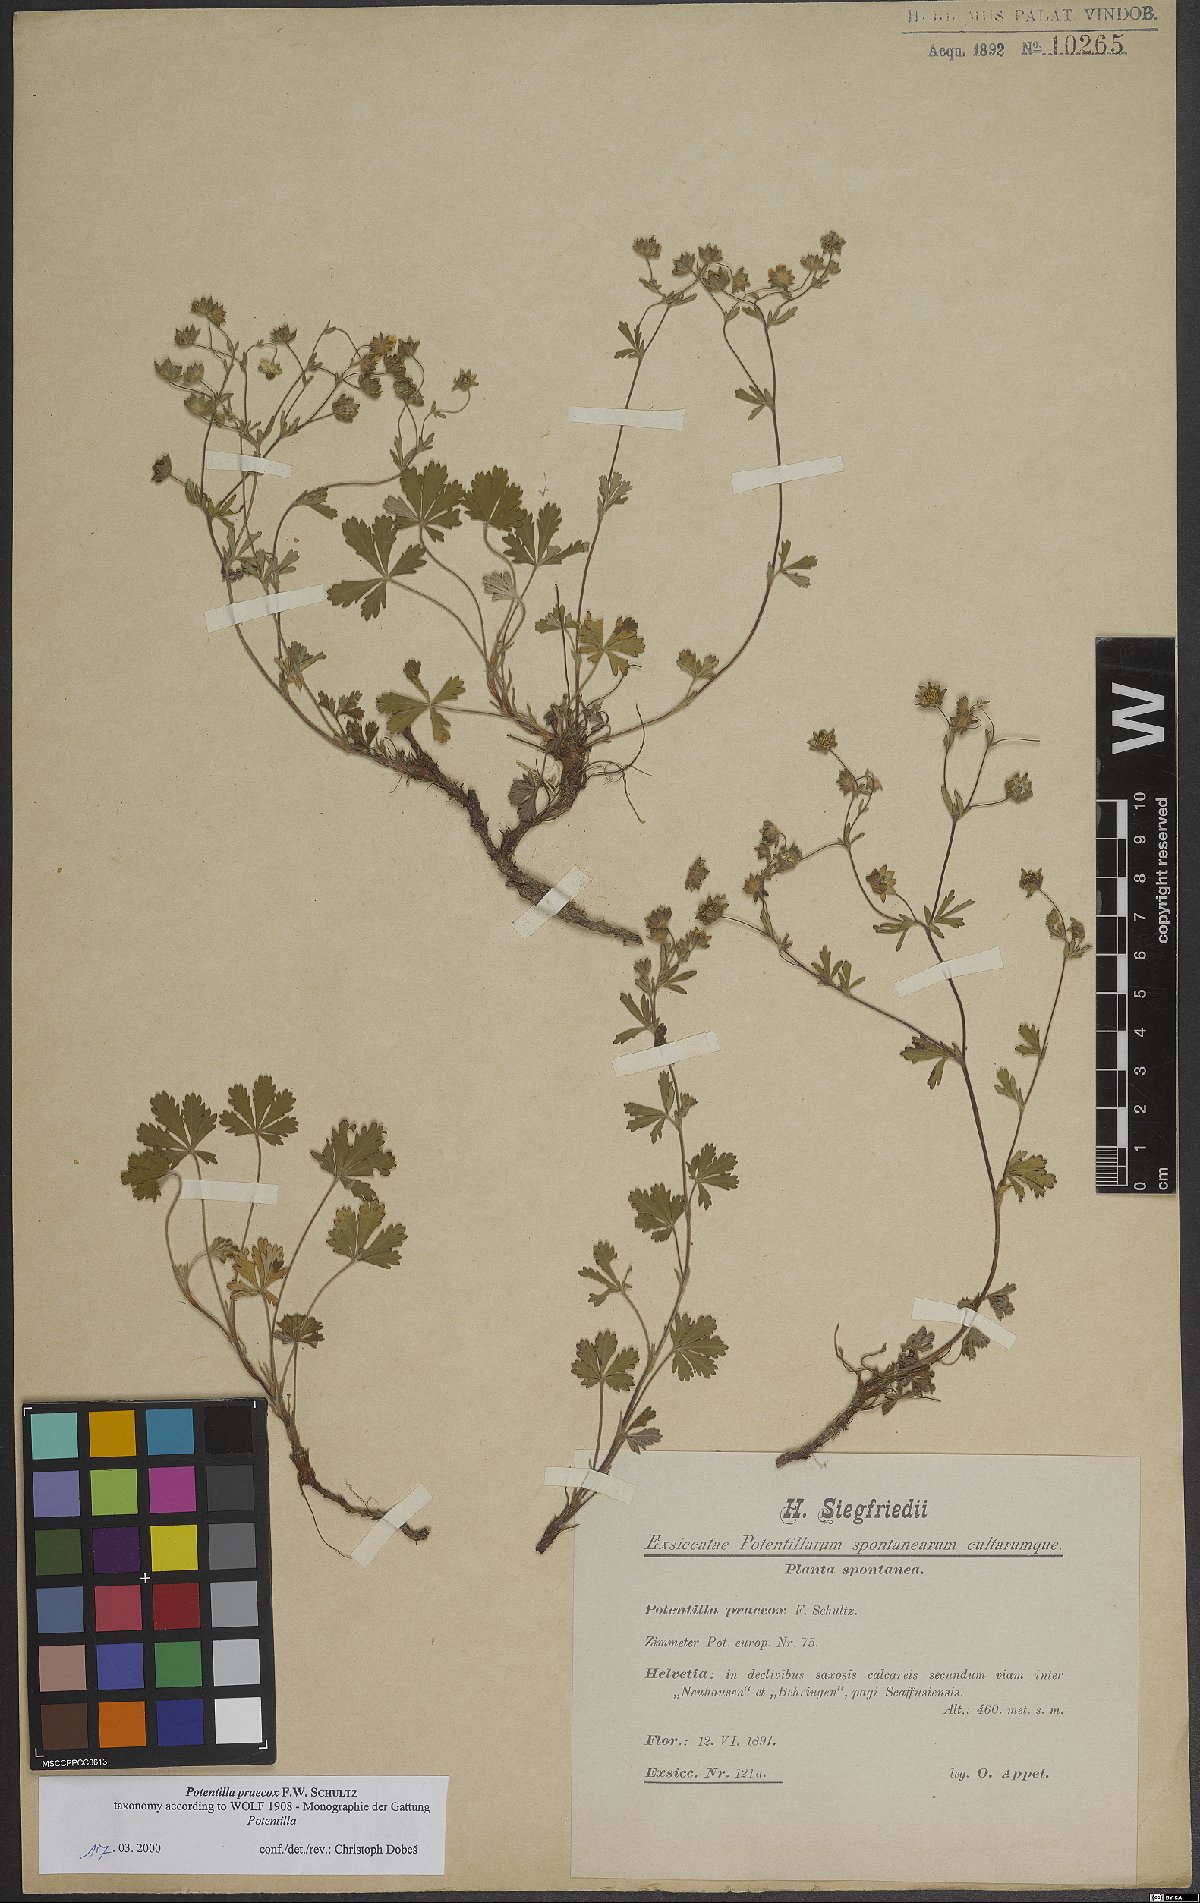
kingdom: Plantae
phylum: Tracheophyta
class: Magnoliopsida
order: Rosales
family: Rosaceae
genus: Potentilla
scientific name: Potentilla praecox
